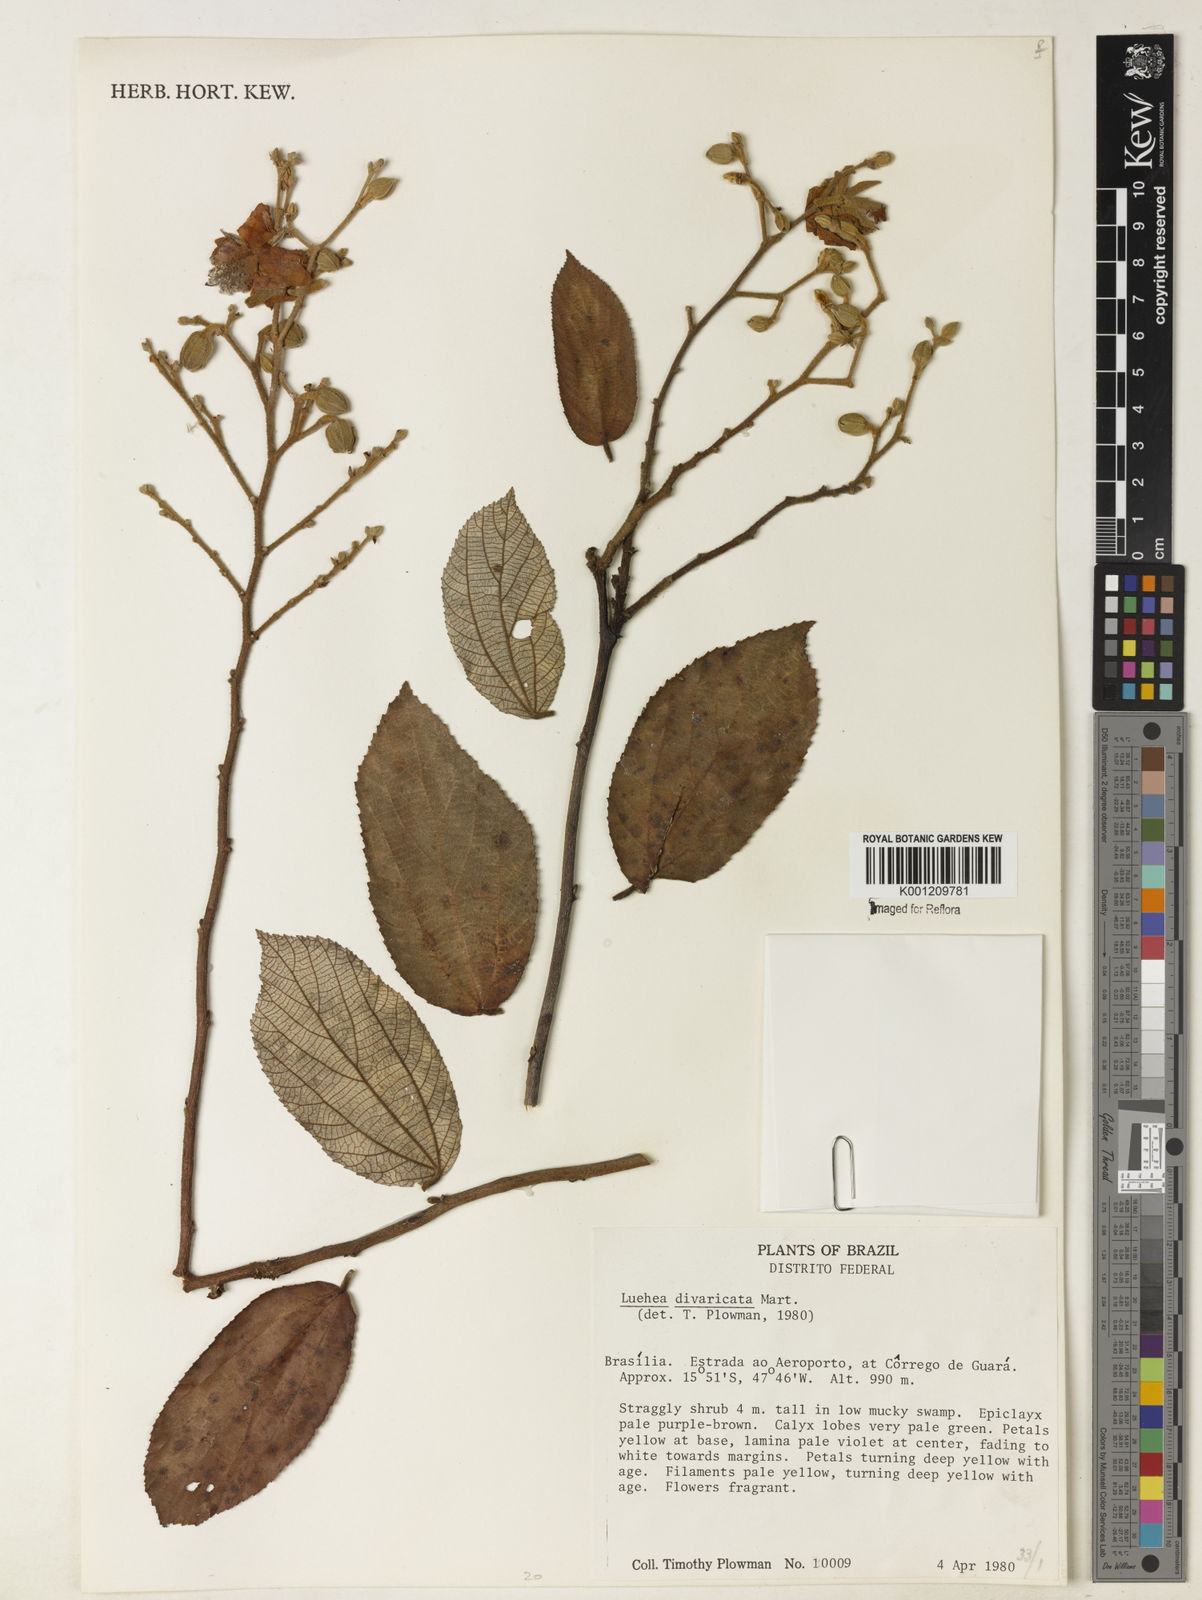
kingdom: Plantae
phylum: Tracheophyta
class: Magnoliopsida
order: Malvales
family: Malvaceae
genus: Luehea
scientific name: Luehea divaricata
